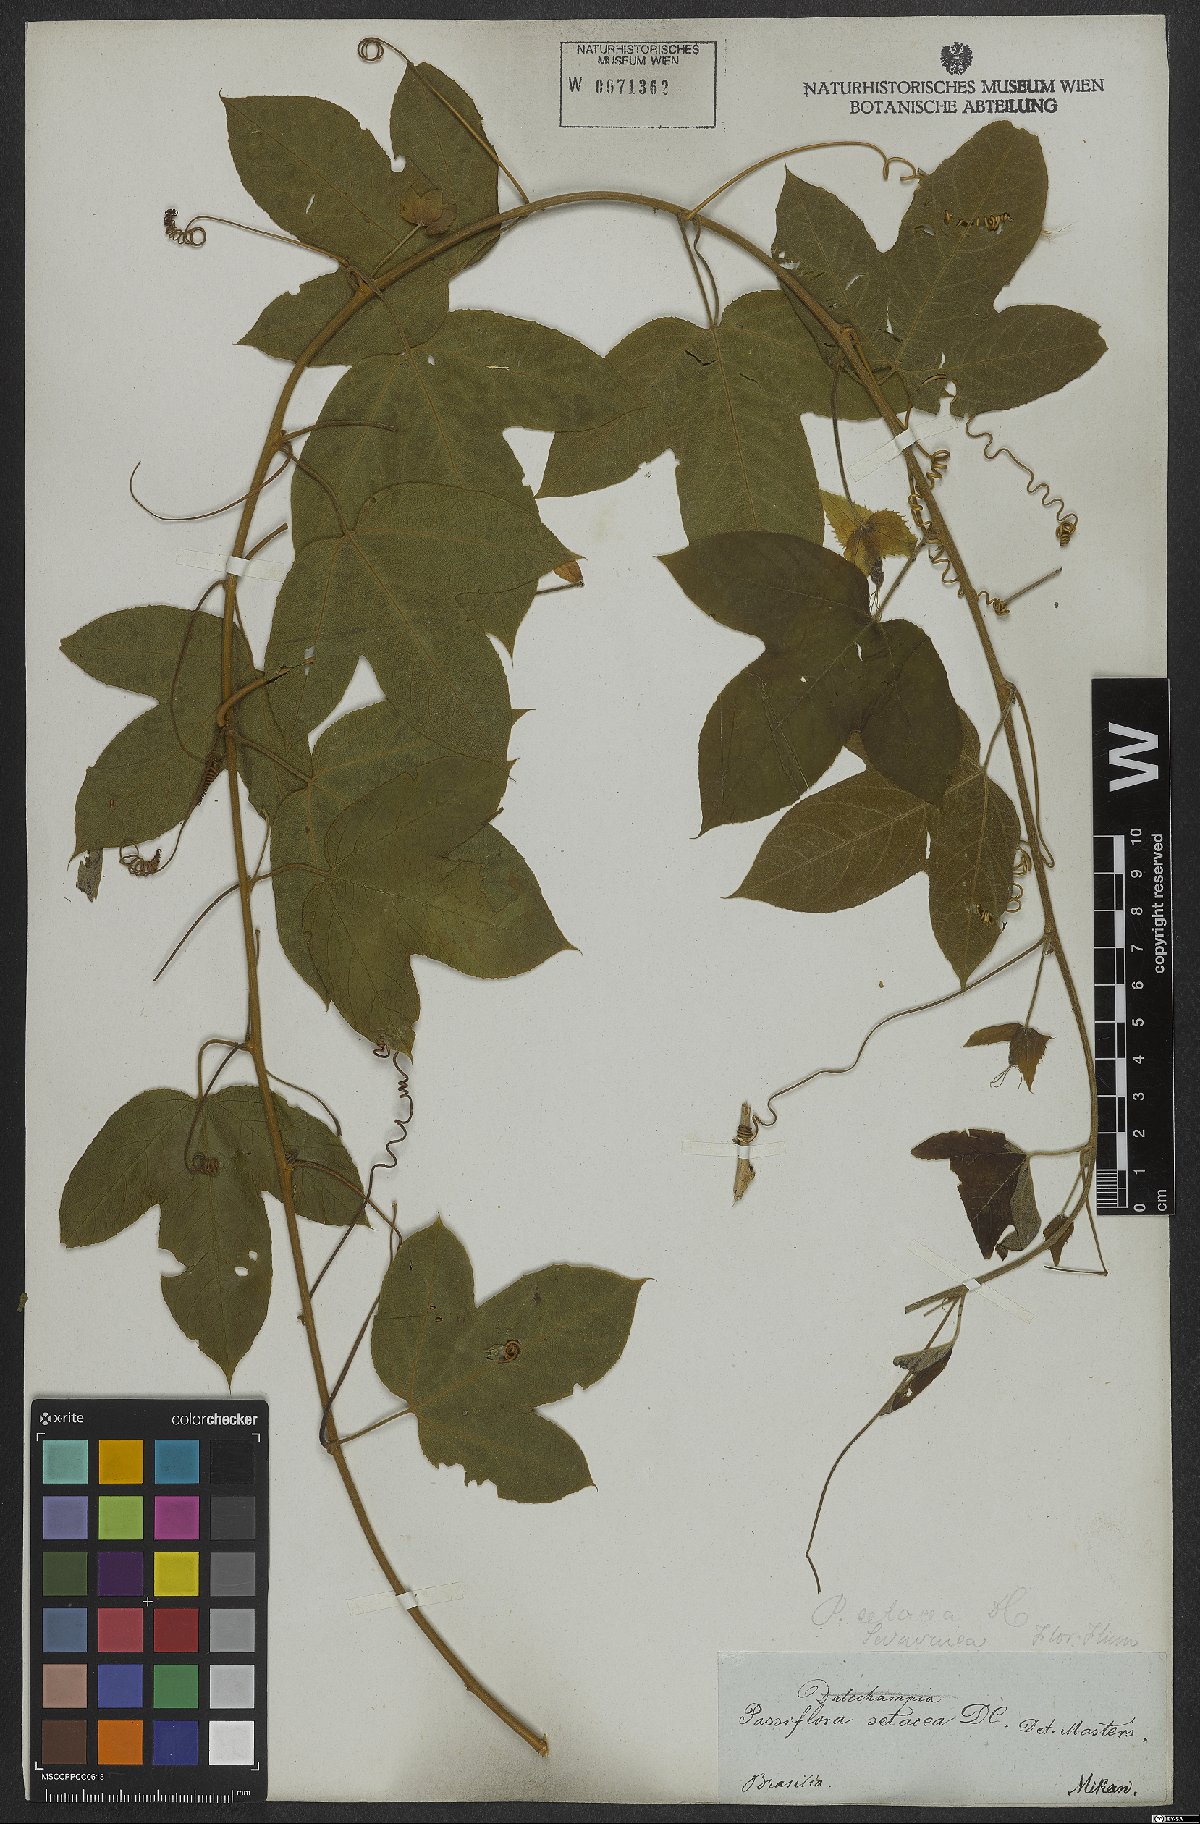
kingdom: Plantae
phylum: Tracheophyta
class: Magnoliopsida
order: Malpighiales
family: Passifloraceae
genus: Passiflora
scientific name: Passiflora setacea
